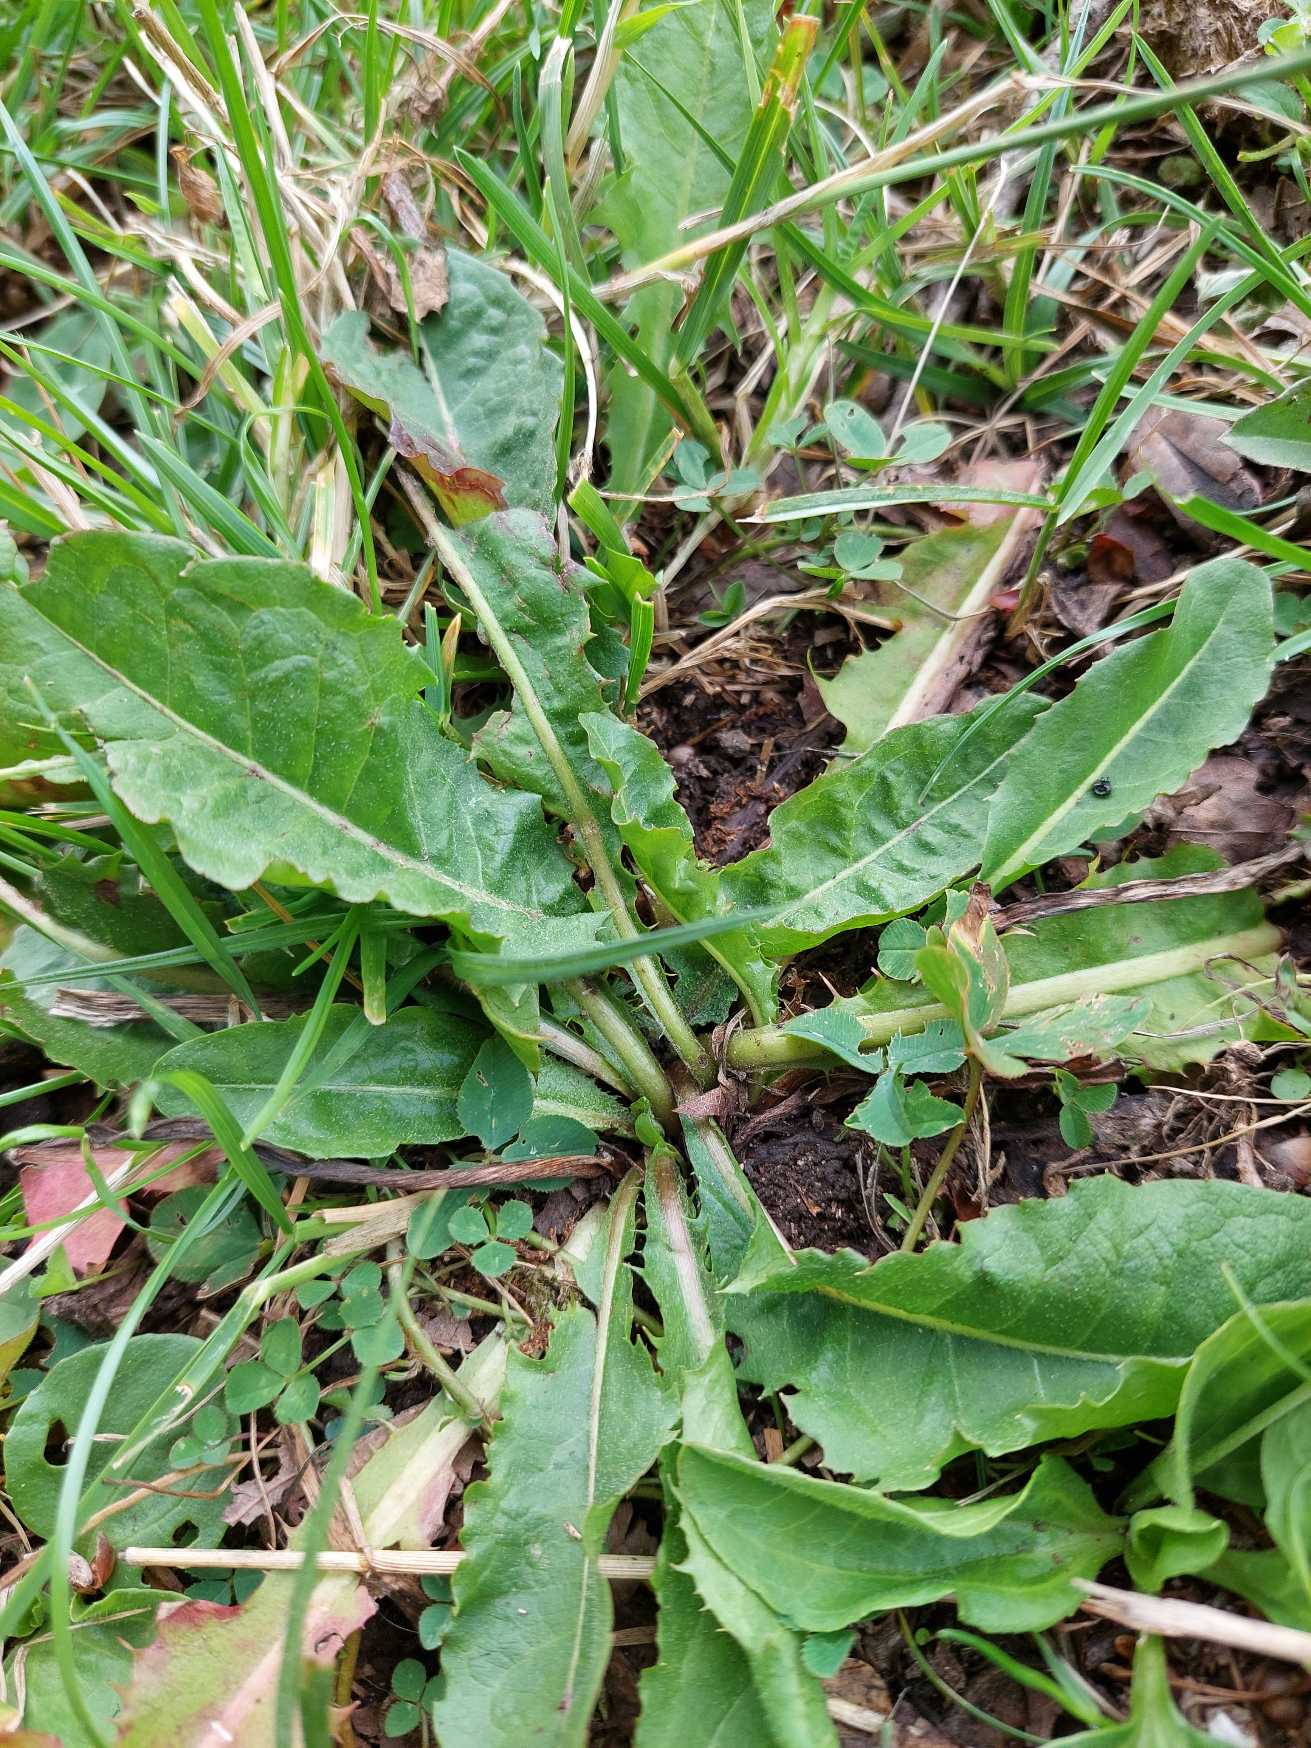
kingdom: Plantae
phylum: Tracheophyta
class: Magnoliopsida
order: Asterales
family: Asteraceae
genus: Taraxacum
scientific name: Taraxacum
